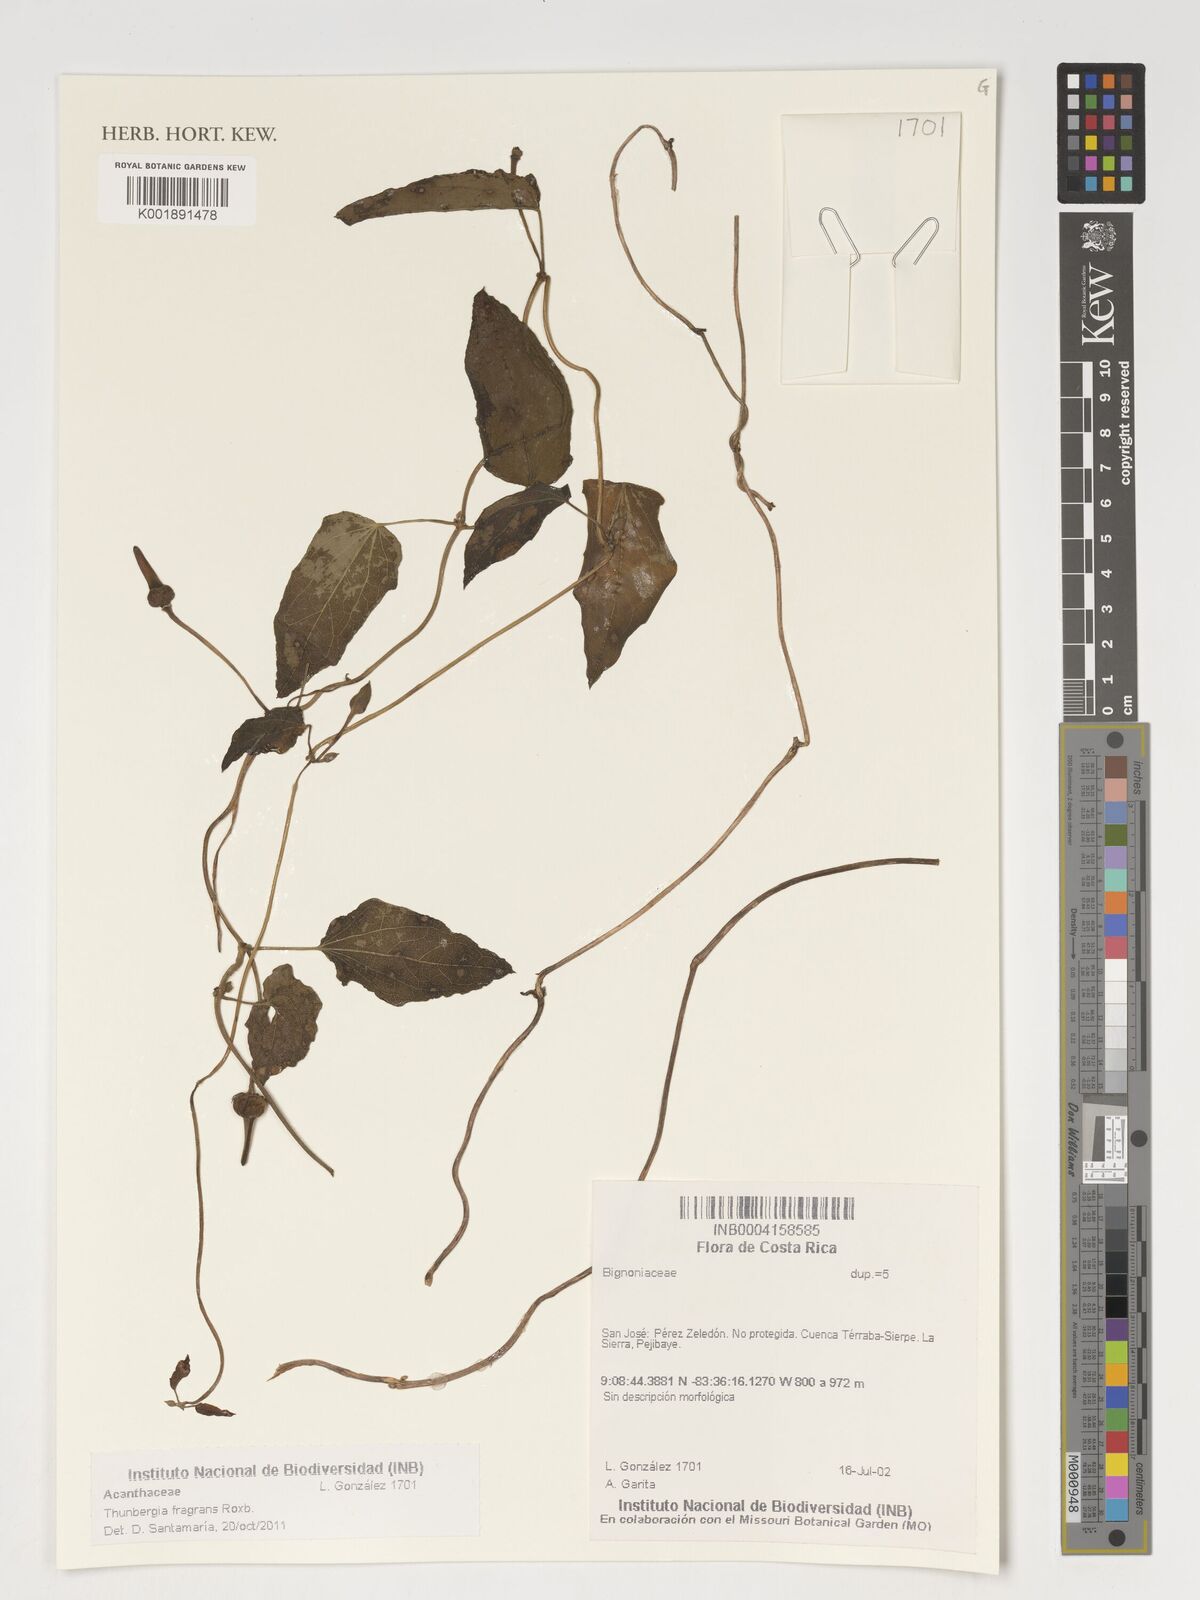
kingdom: Plantae
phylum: Tracheophyta
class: Magnoliopsida
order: Lamiales
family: Acanthaceae
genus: Thunbergia
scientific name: Thunbergia fragrans
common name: Whitelady
